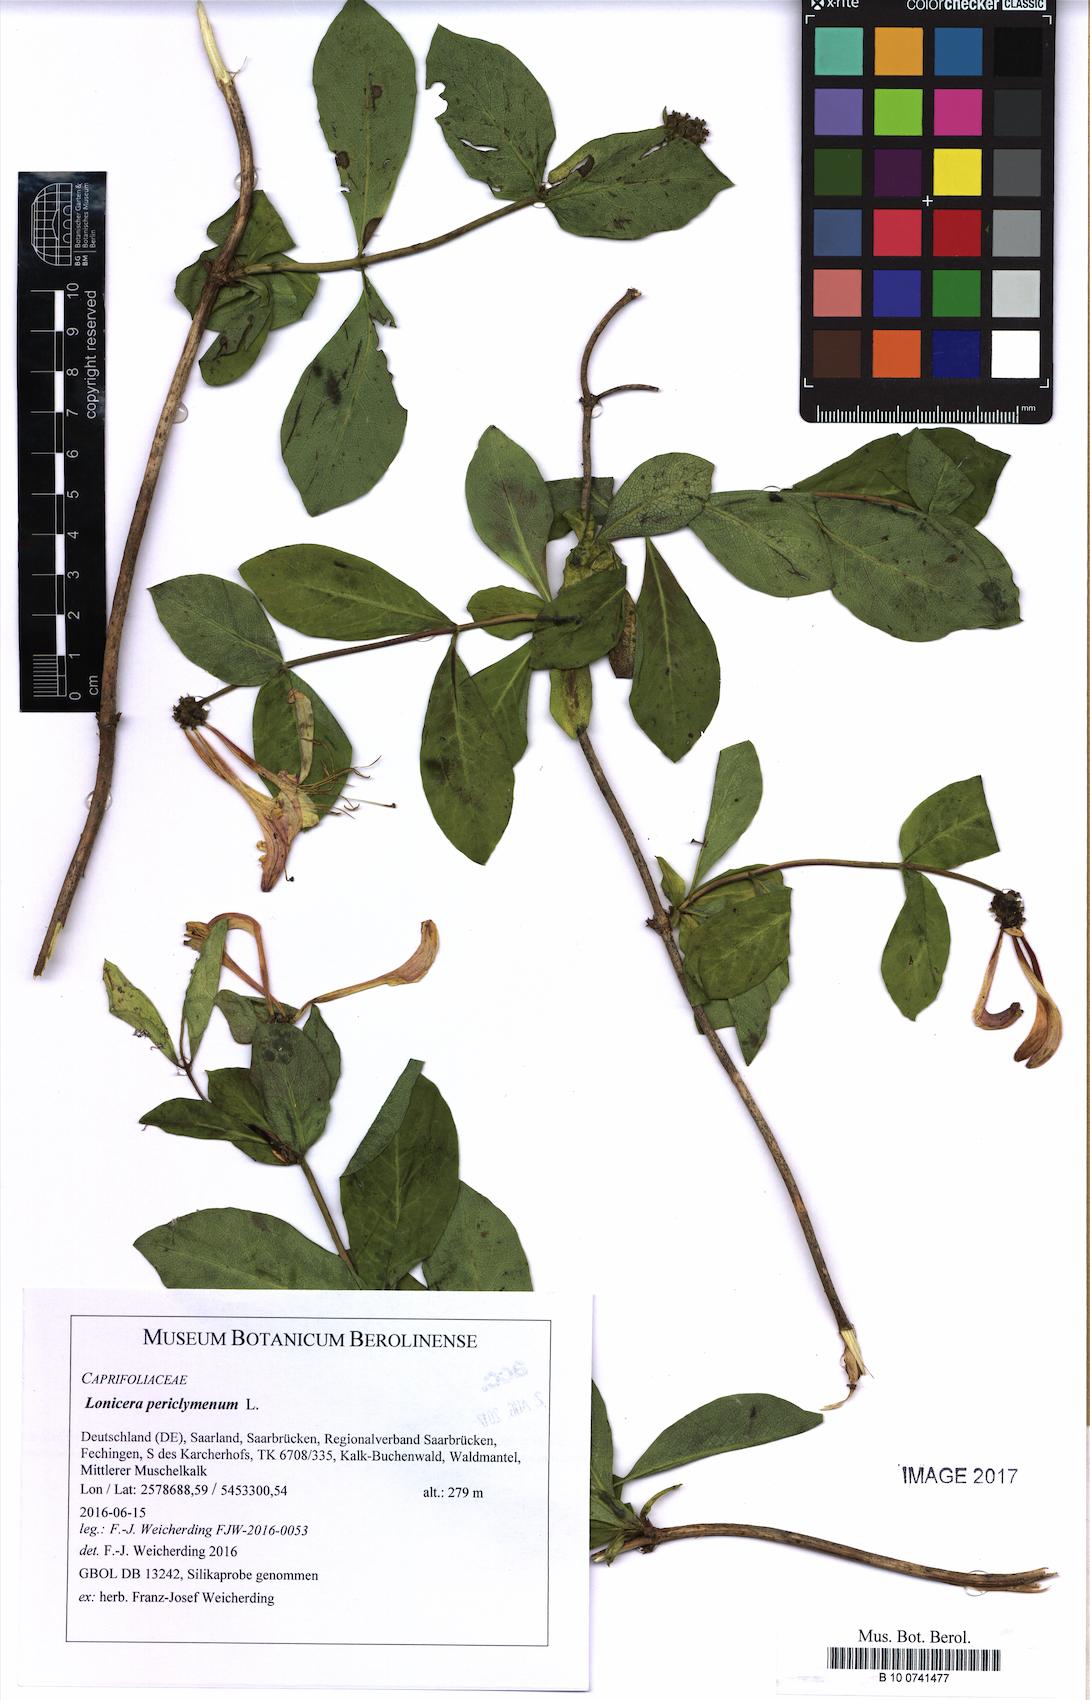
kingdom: Plantae
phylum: Tracheophyta
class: Magnoliopsida
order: Dipsacales
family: Caprifoliaceae
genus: Lonicera
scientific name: Lonicera periclymenum
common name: European honeysuckle
